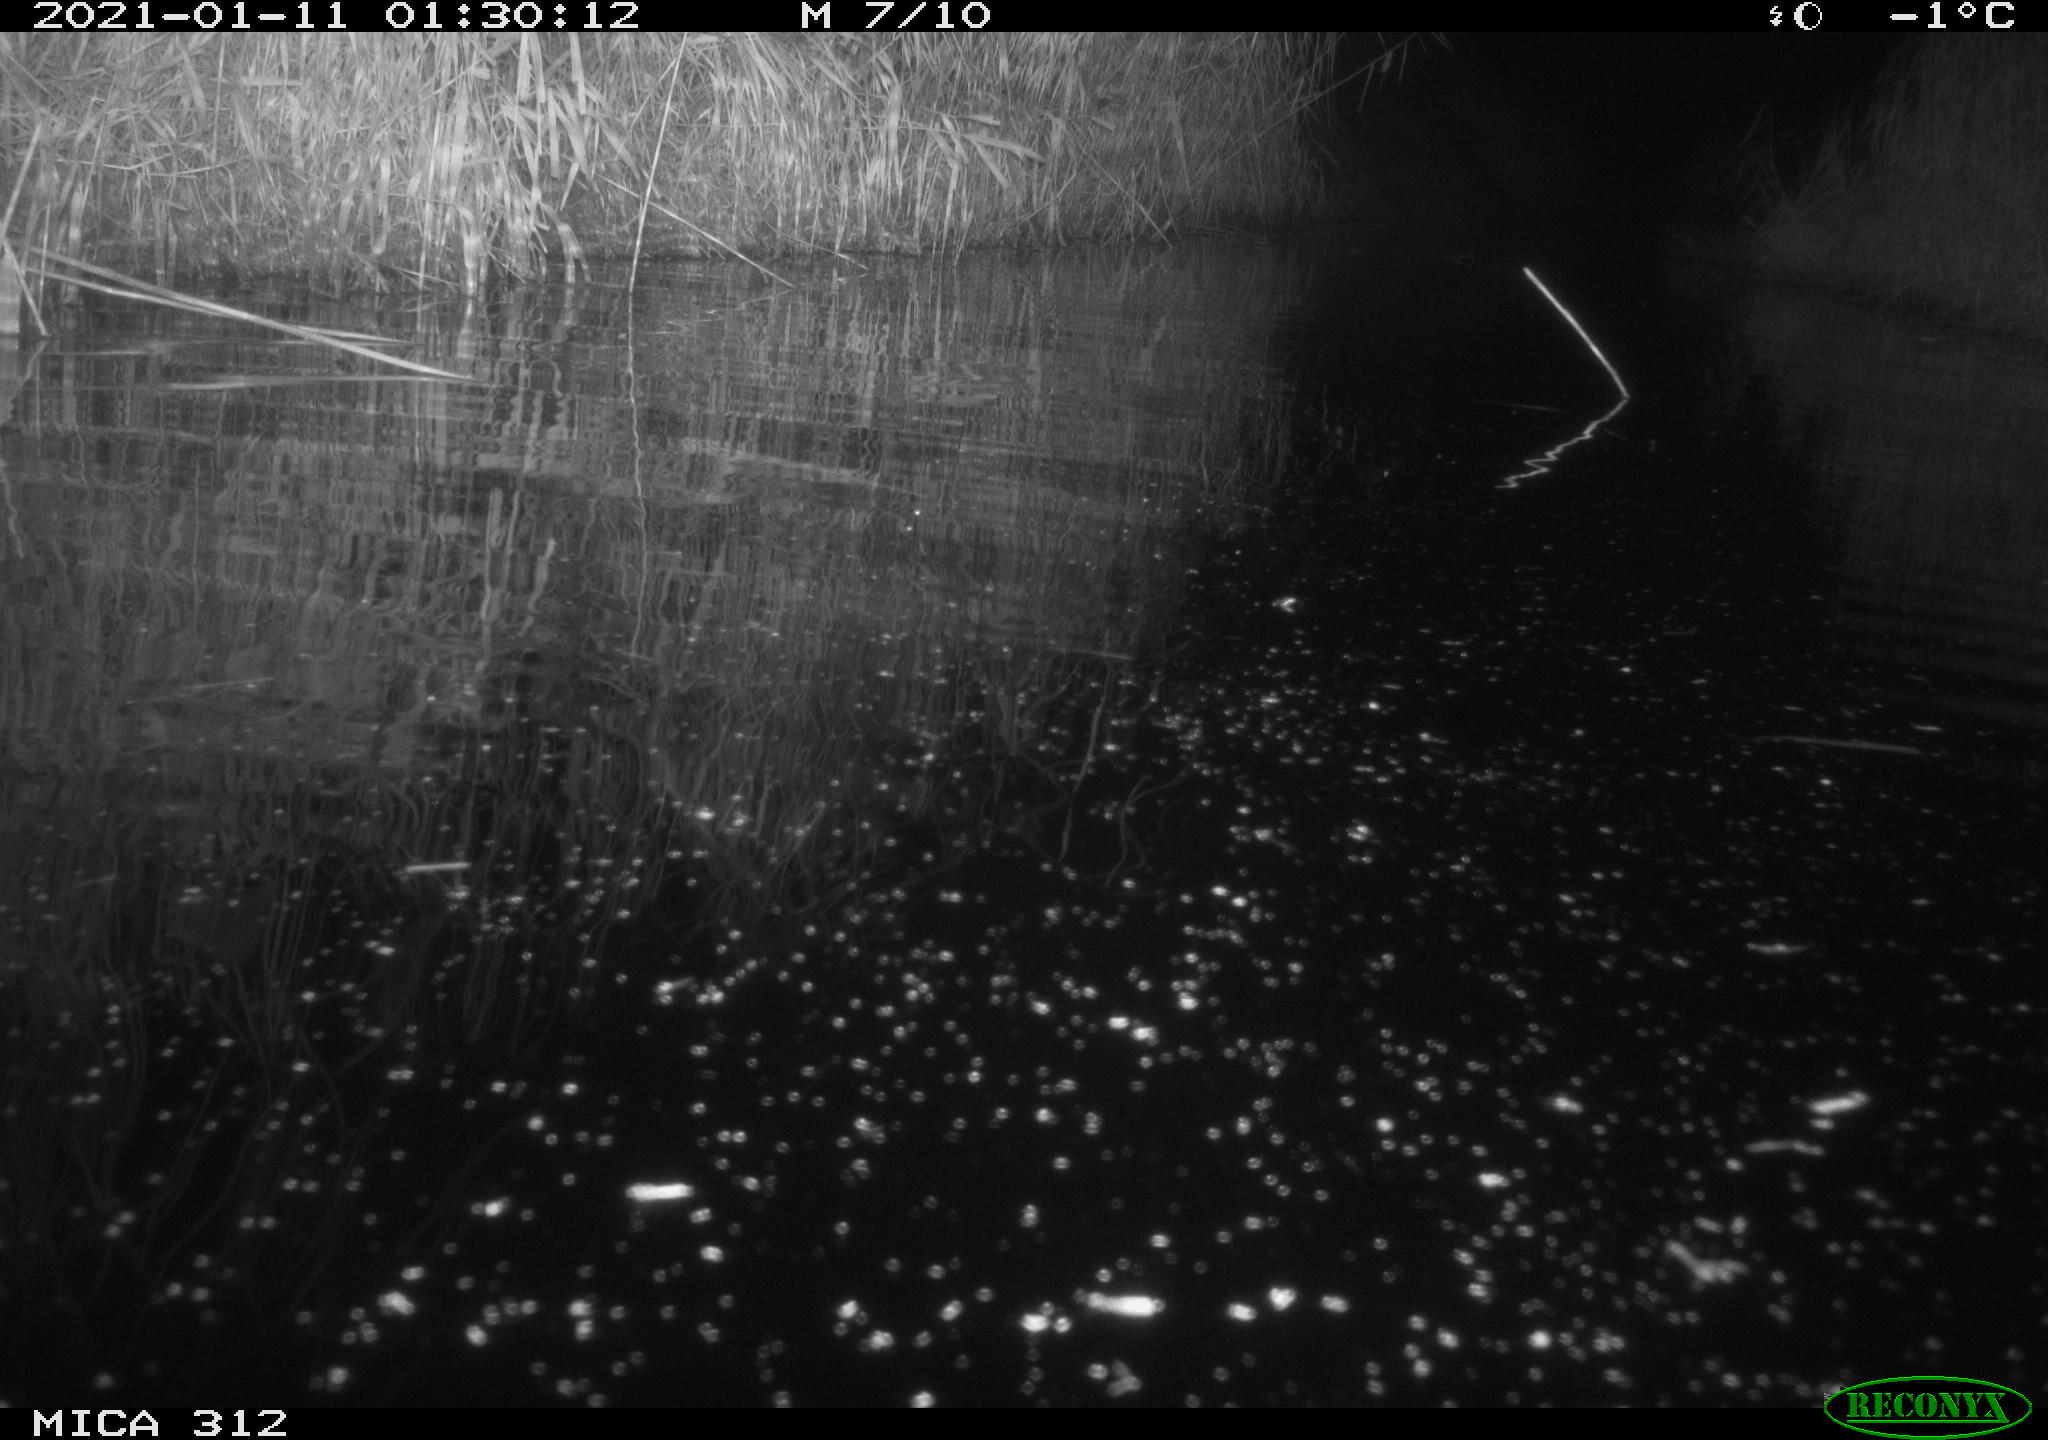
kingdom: Animalia
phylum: Chordata
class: Mammalia
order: Rodentia
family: Muridae
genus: Rattus
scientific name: Rattus norvegicus
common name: Brown rat
